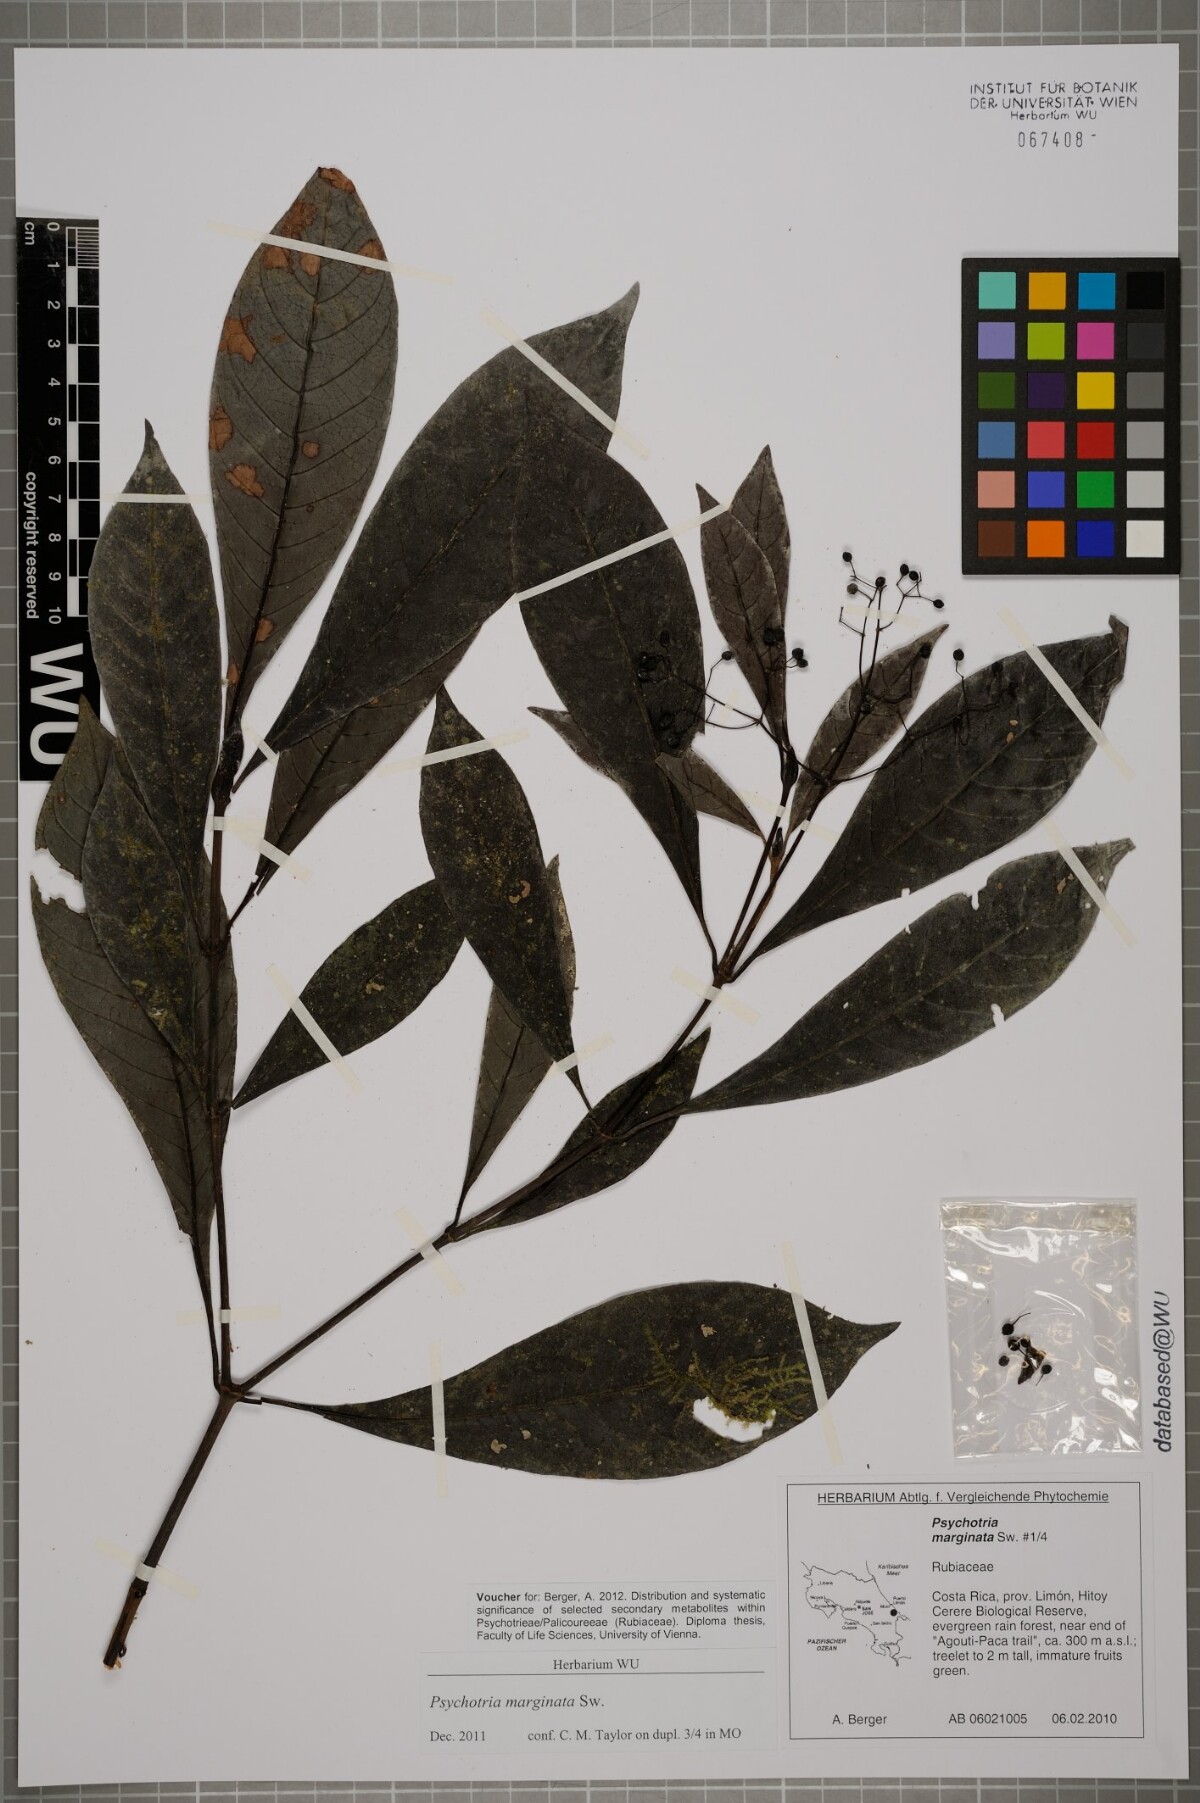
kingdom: Plantae
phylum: Tracheophyta
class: Magnoliopsida
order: Gentianales
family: Rubiaceae
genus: Psychotria
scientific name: Psychotria marginata
